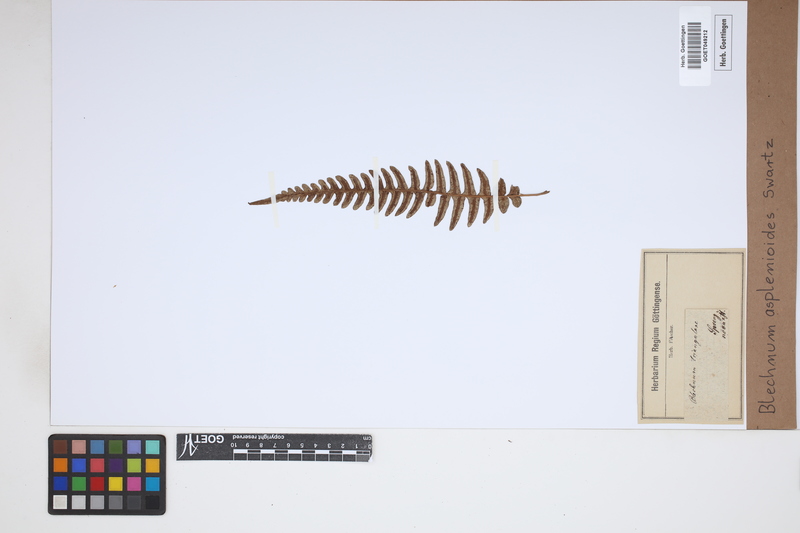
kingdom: Plantae
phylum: Tracheophyta
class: Polypodiopsida
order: Polypodiales
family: Blechnaceae
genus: Blechnum
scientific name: Blechnum asplenioides
